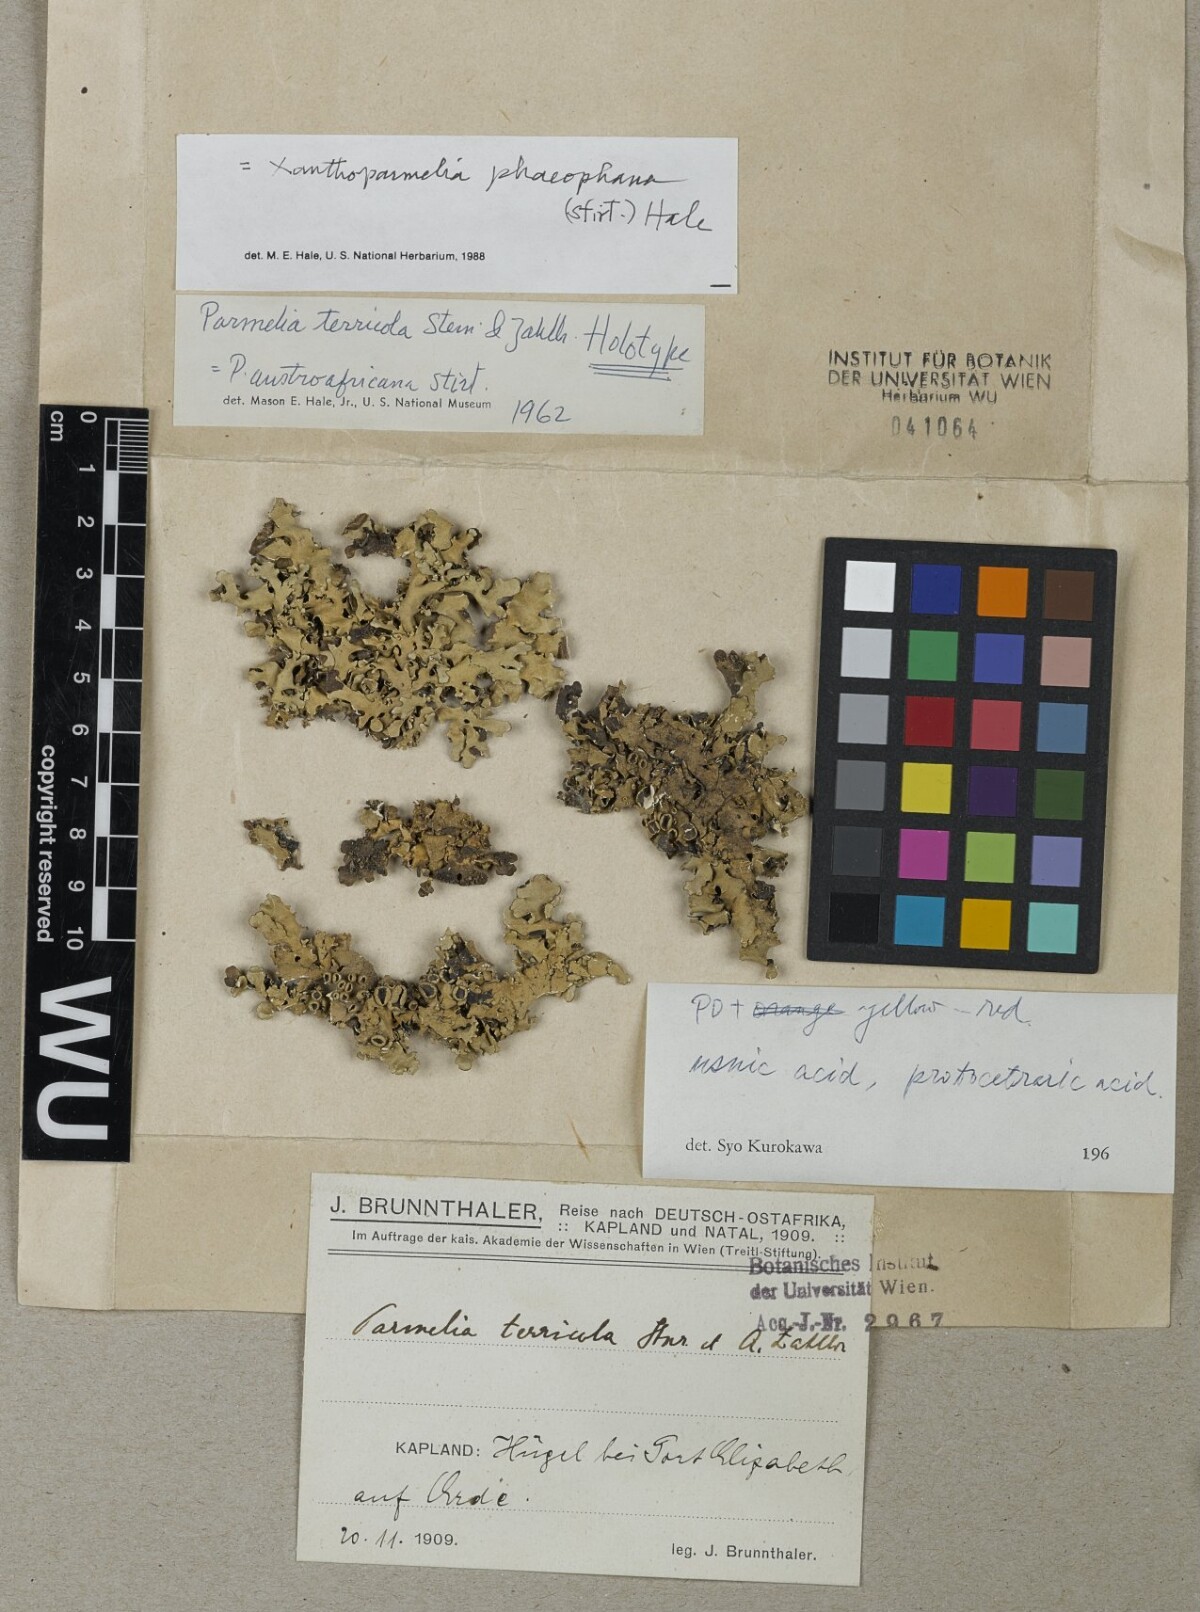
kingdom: Fungi
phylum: Ascomycota
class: Lecanoromycetes
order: Lecanorales
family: Parmeliaceae
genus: Parmelia
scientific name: Parmelia
